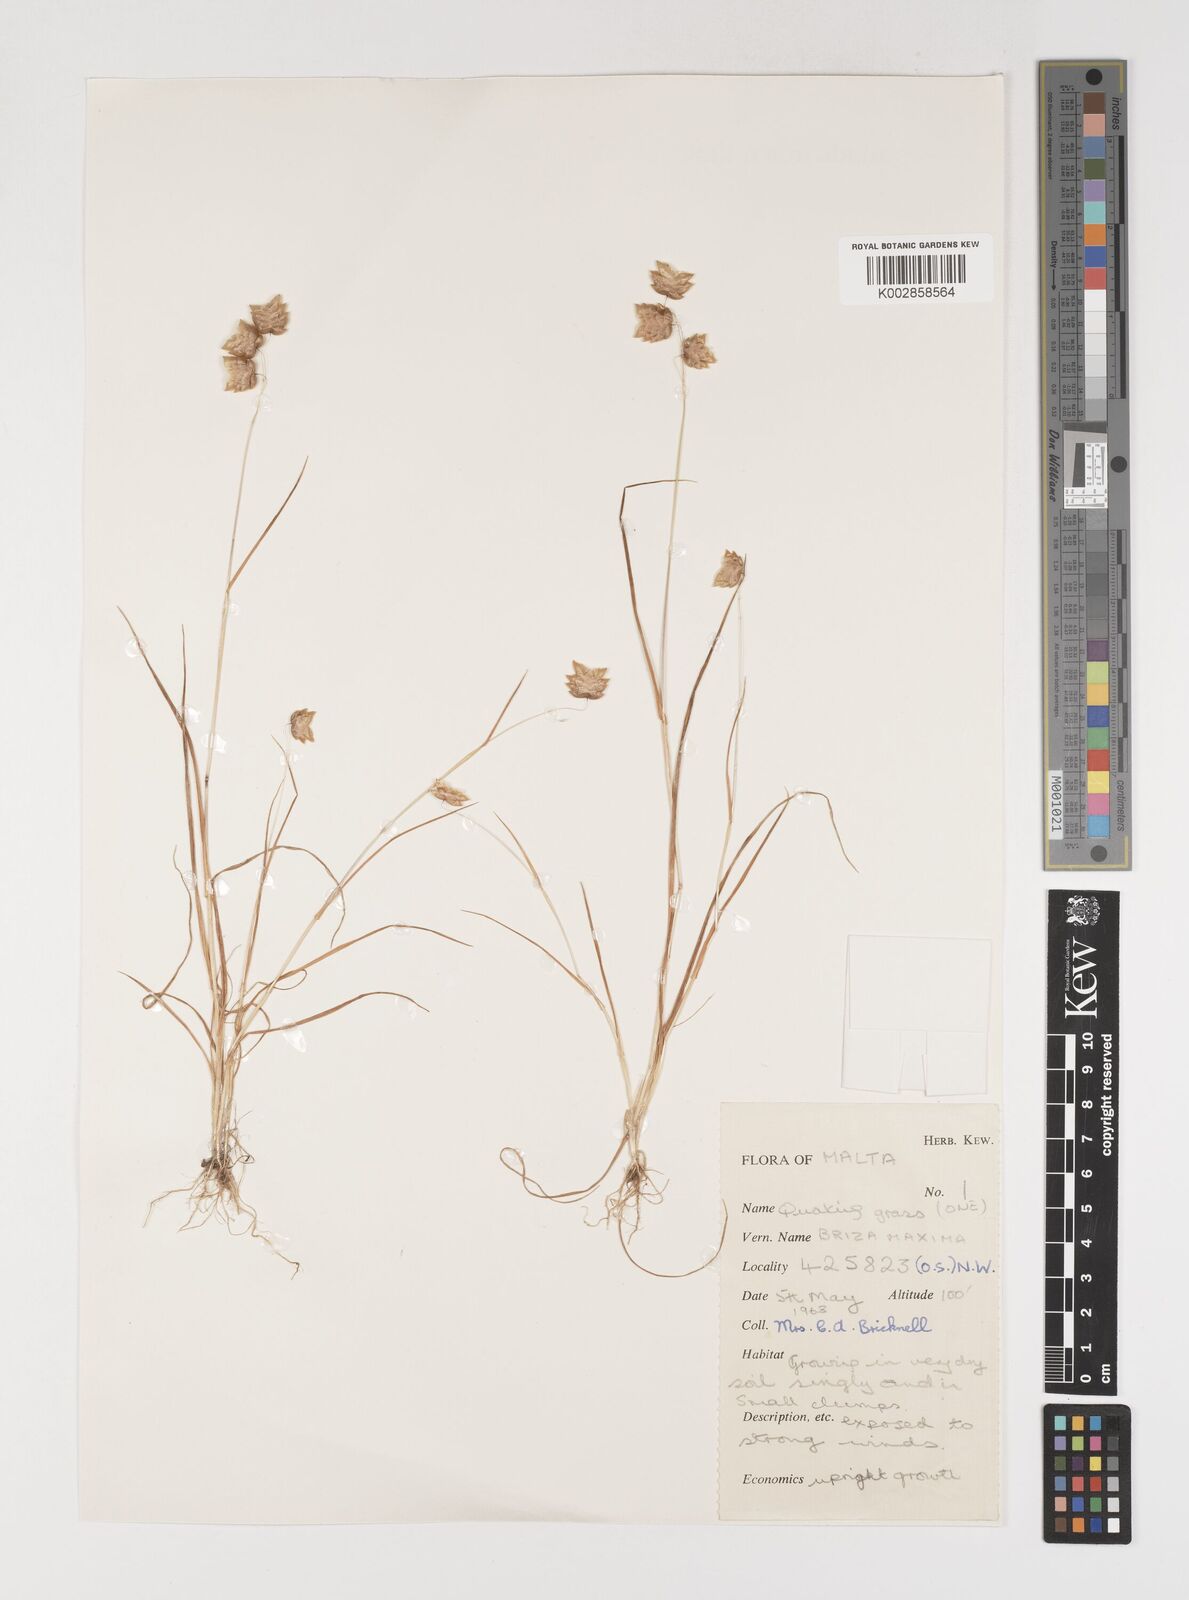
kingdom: Plantae
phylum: Tracheophyta
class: Liliopsida
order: Poales
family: Poaceae
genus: Briza
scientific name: Briza maxima
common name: Big quakinggrass
